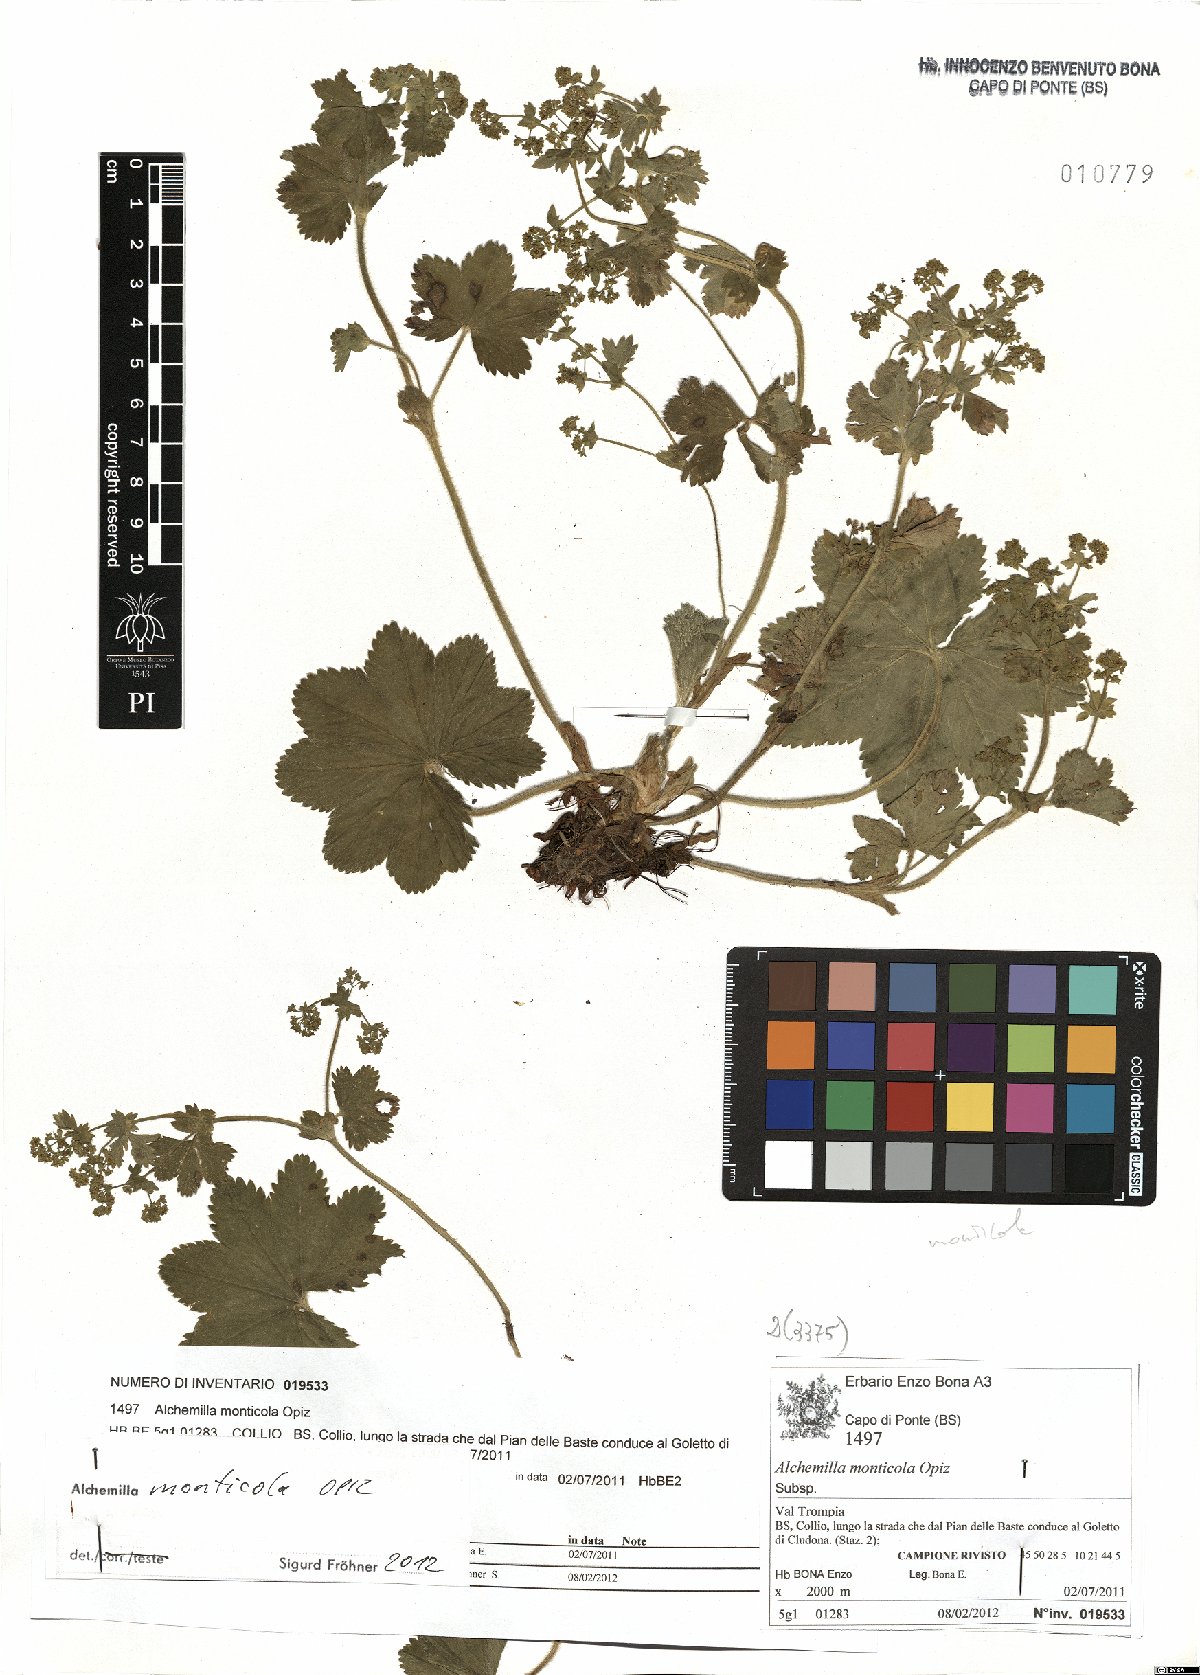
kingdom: Plantae
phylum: Tracheophyta
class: Magnoliopsida
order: Rosales
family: Rosaceae
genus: Alchemilla
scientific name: Alchemilla monticola
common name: Hairy lady's mantle
